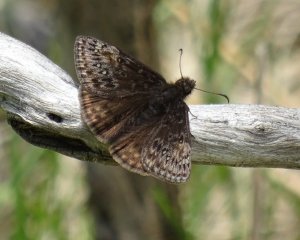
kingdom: Animalia
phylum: Arthropoda
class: Insecta
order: Lepidoptera
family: Hesperiidae
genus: Gesta
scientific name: Gesta
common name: Wild Indigo Duskywing
